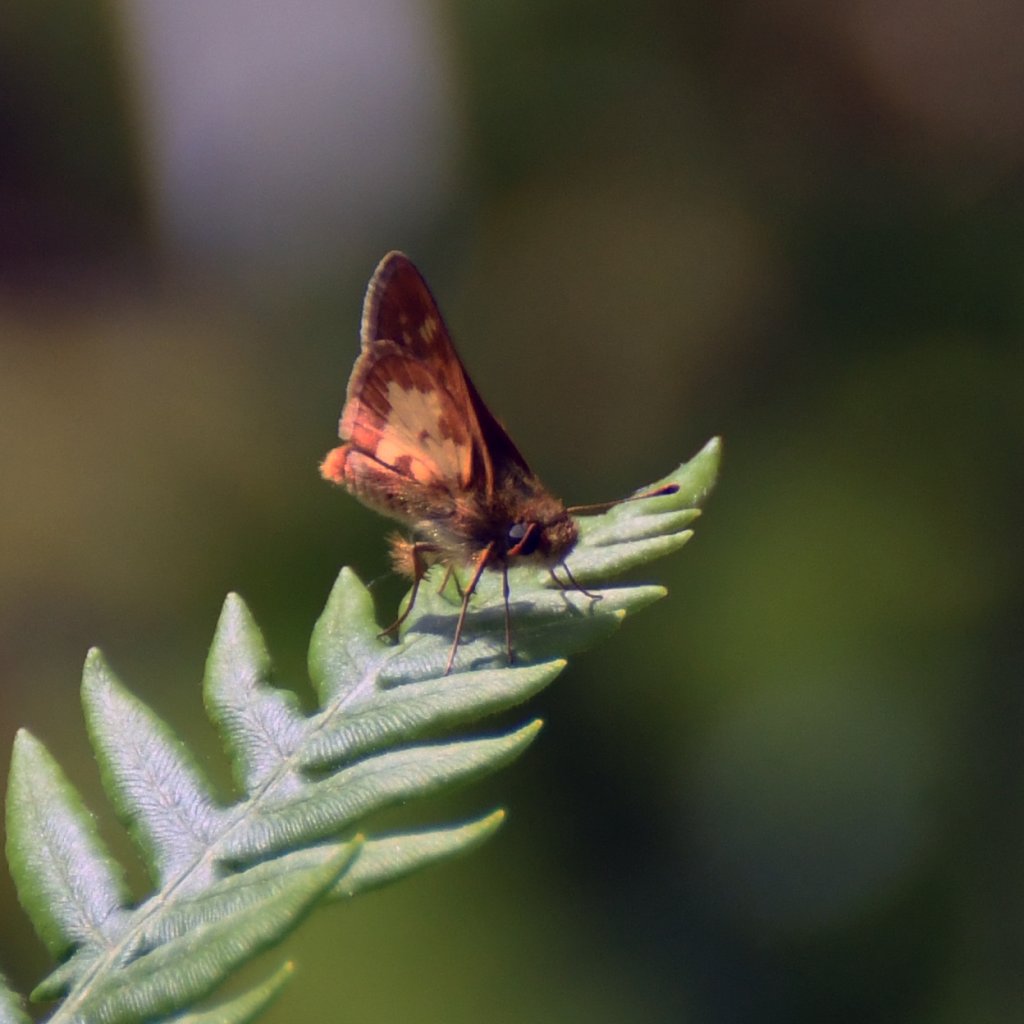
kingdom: Animalia
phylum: Arthropoda
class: Insecta
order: Lepidoptera
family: Hesperiidae
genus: Polites
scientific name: Polites coras
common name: Peck's Skipper
